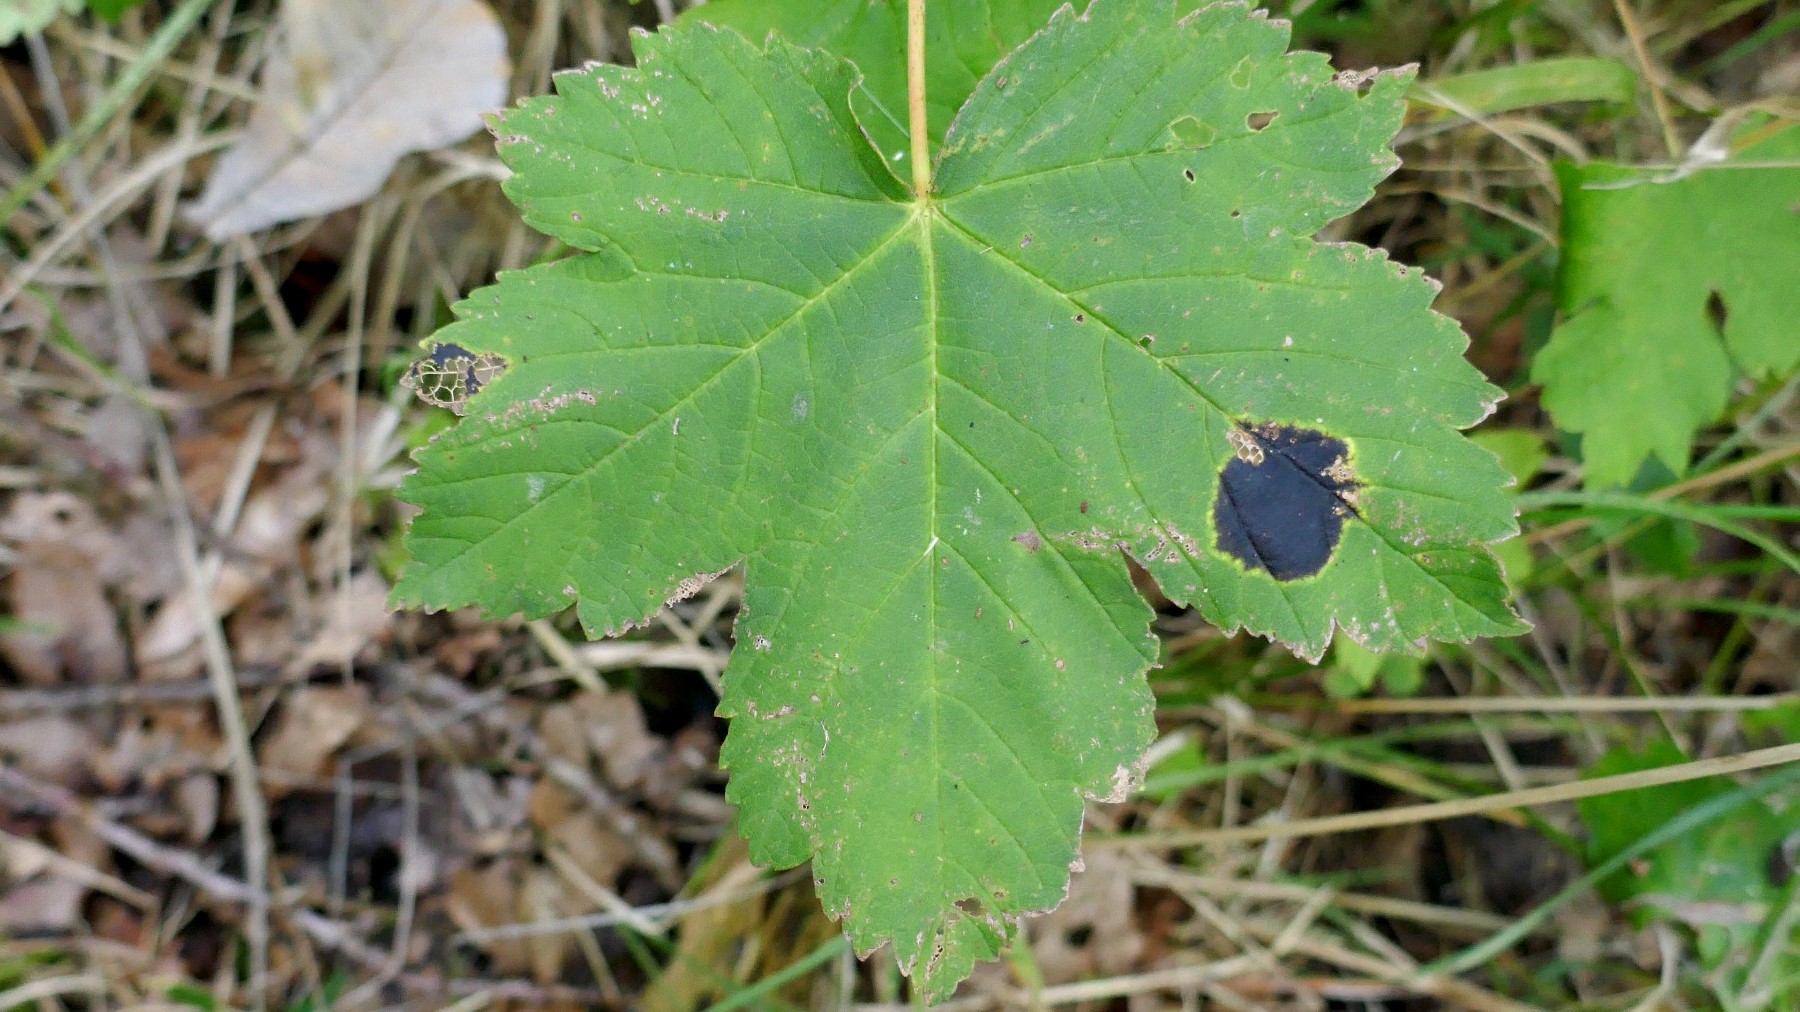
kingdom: Fungi
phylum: Ascomycota
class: Leotiomycetes
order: Rhytismatales
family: Rhytismataceae
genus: Rhytisma
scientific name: Rhytisma acerinum
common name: ahorn-rynkeplet
